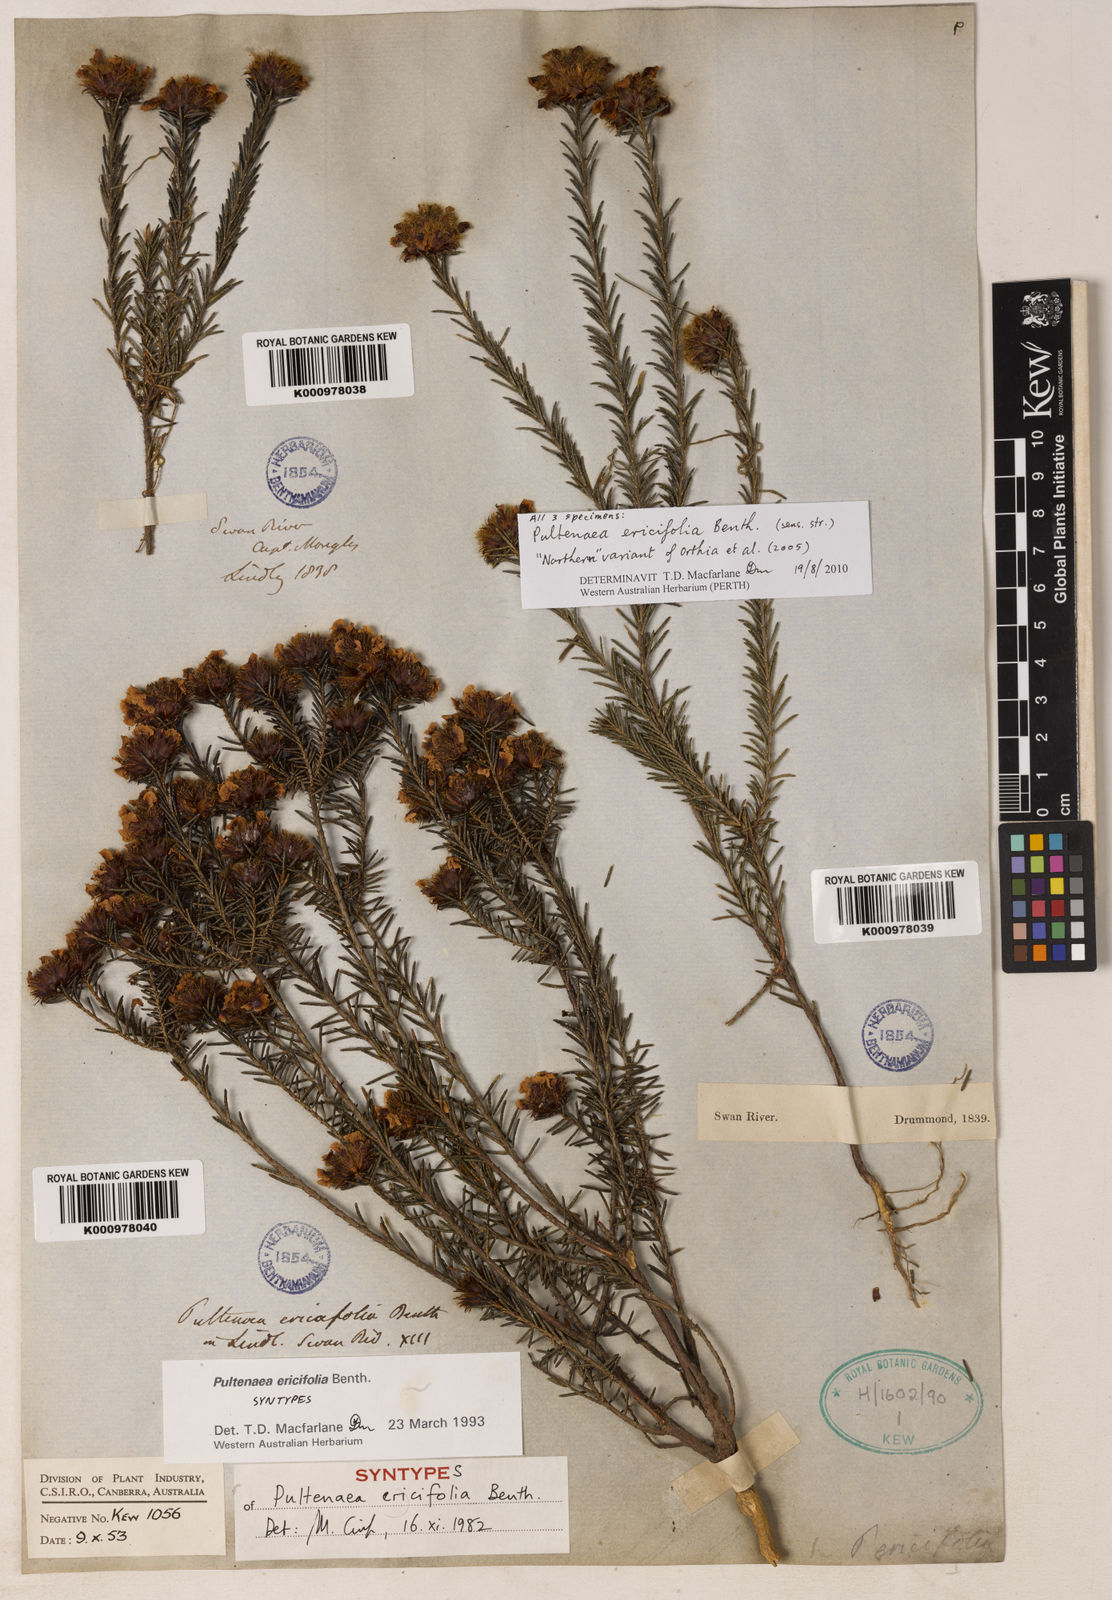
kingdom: Plantae
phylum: Tracheophyta
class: Magnoliopsida
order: Fabales
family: Fabaceae
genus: Pultenaea
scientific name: Pultenaea
